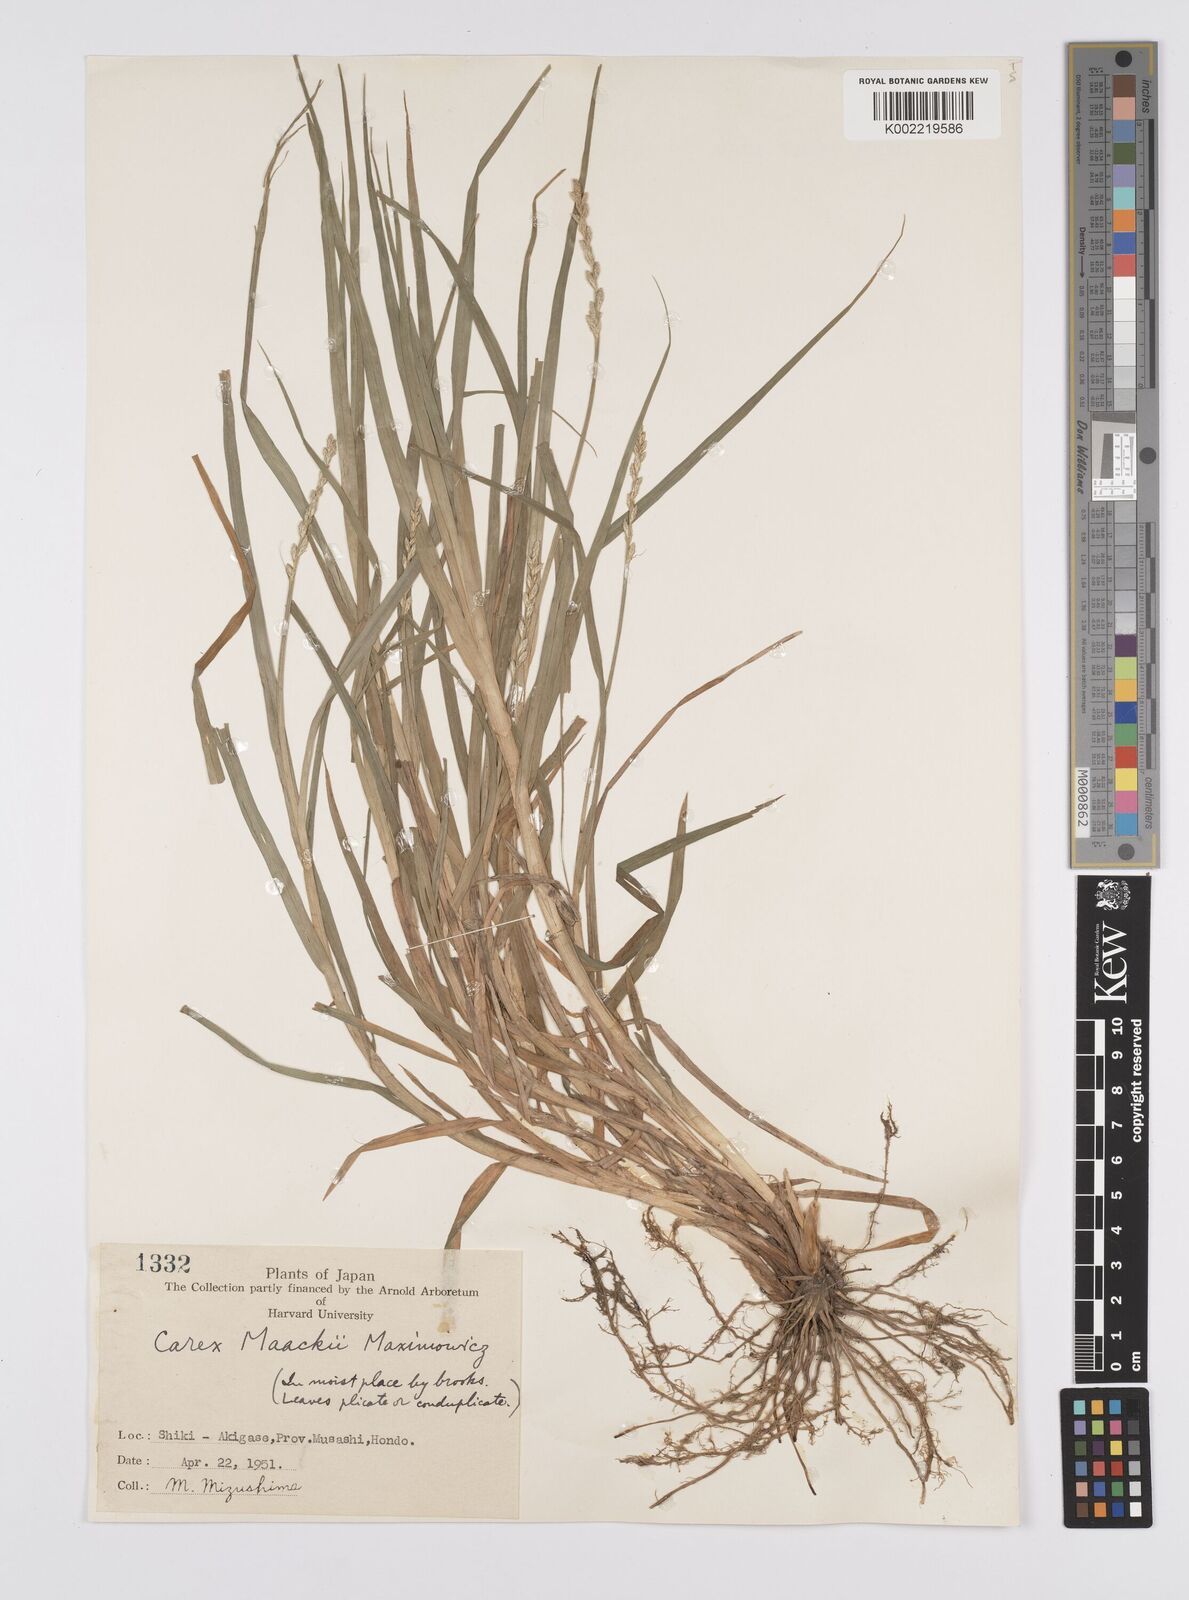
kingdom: Plantae
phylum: Tracheophyta
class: Liliopsida
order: Poales
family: Cyperaceae
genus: Carex
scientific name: Carex maackii
